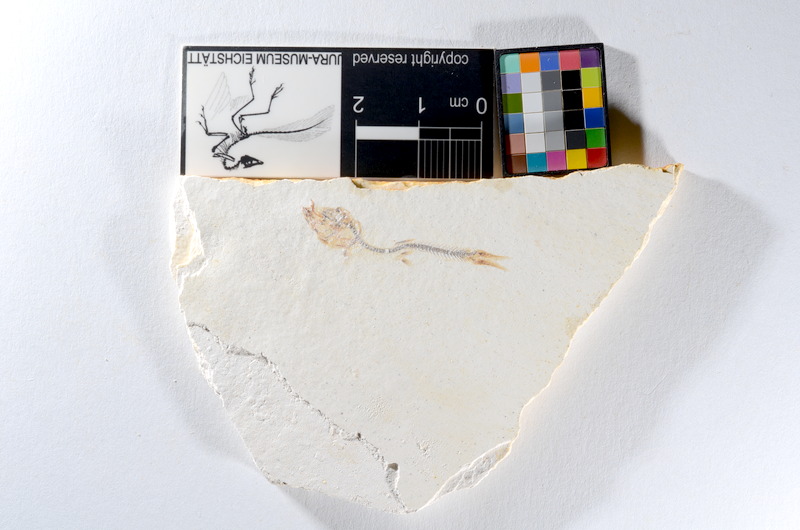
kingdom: Animalia
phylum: Chordata
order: Salmoniformes
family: Orthogonikleithridae
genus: Orthogonikleithrus
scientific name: Orthogonikleithrus hoelli
